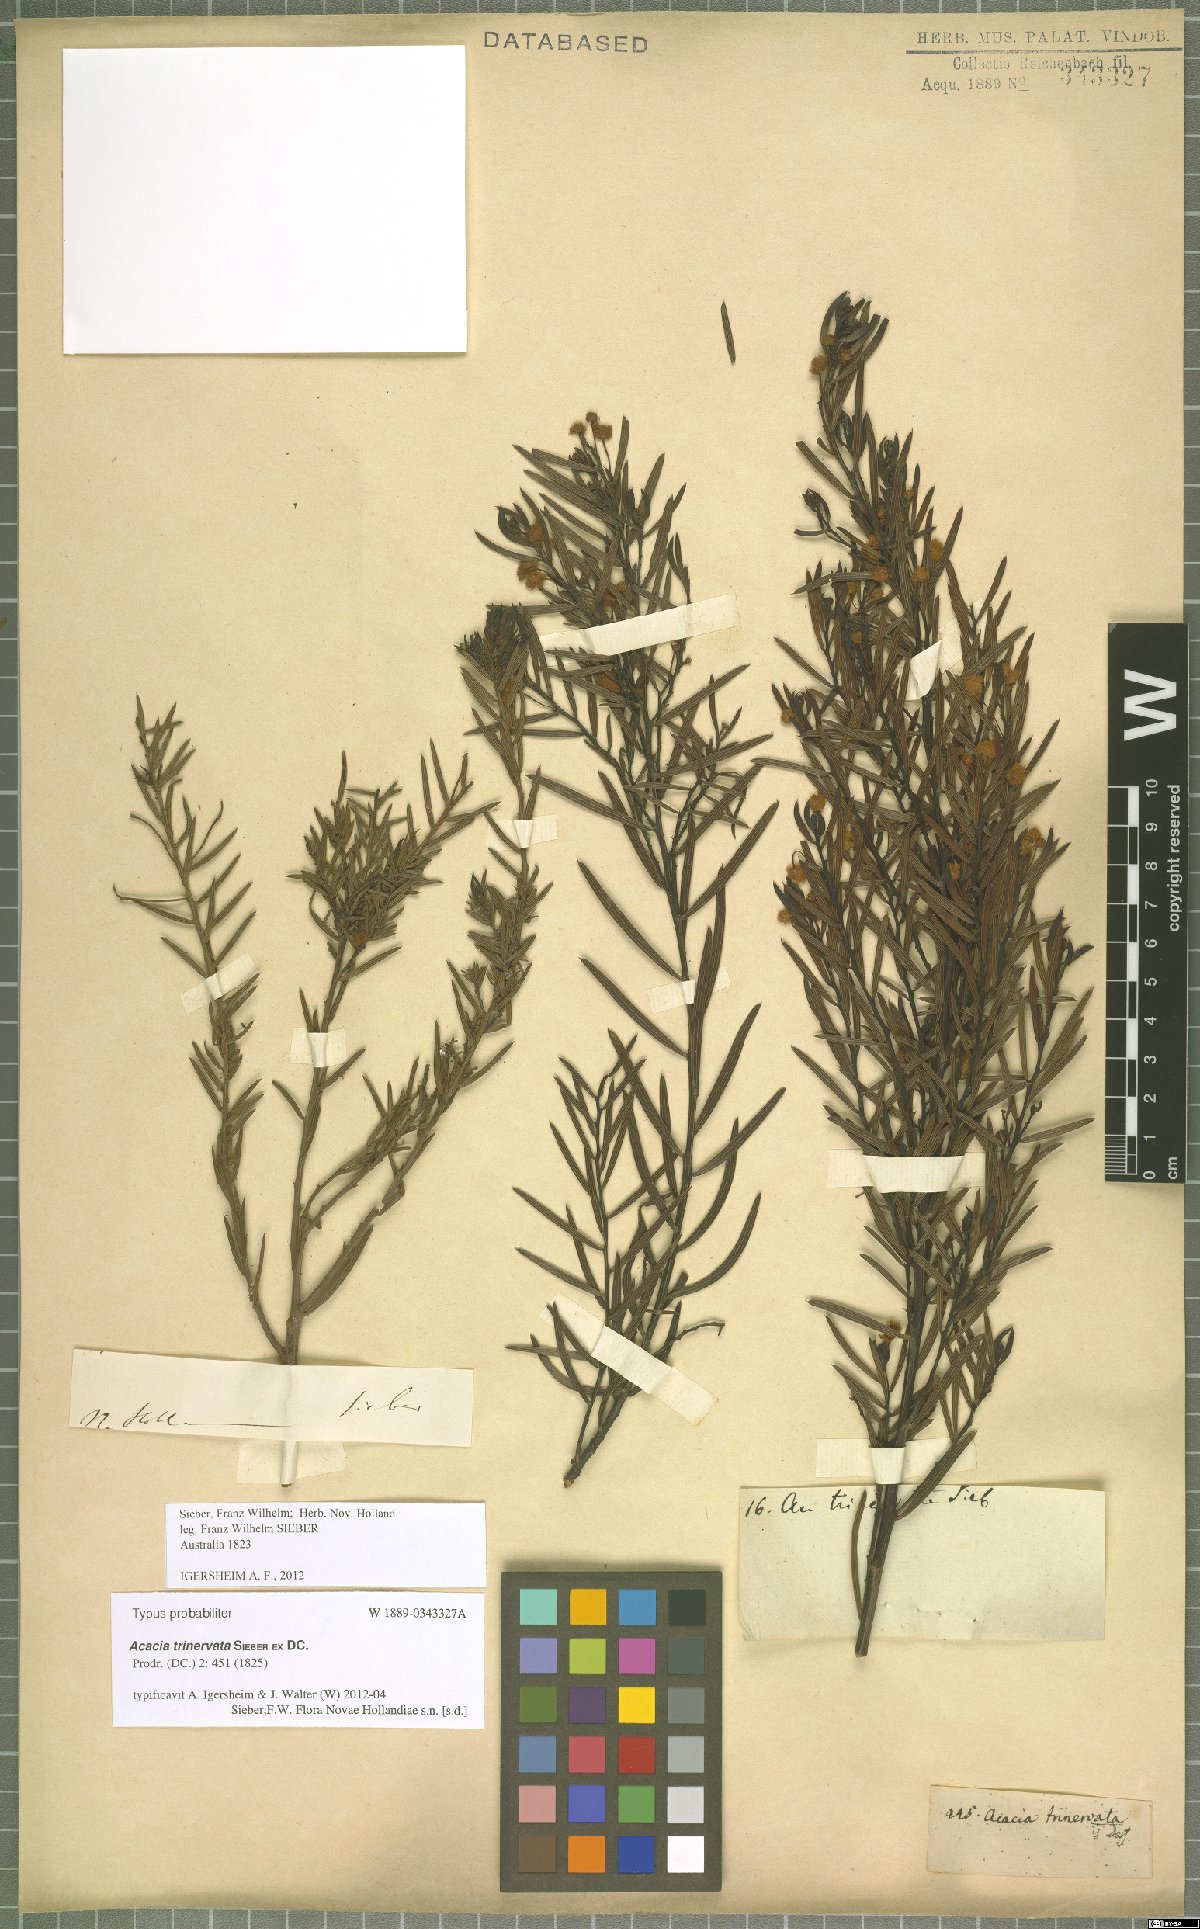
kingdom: Plantae
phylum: Tracheophyta
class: Magnoliopsida
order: Fabales
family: Fabaceae
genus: Acacia
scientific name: Acacia trinervata
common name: Three-nerve wattle
